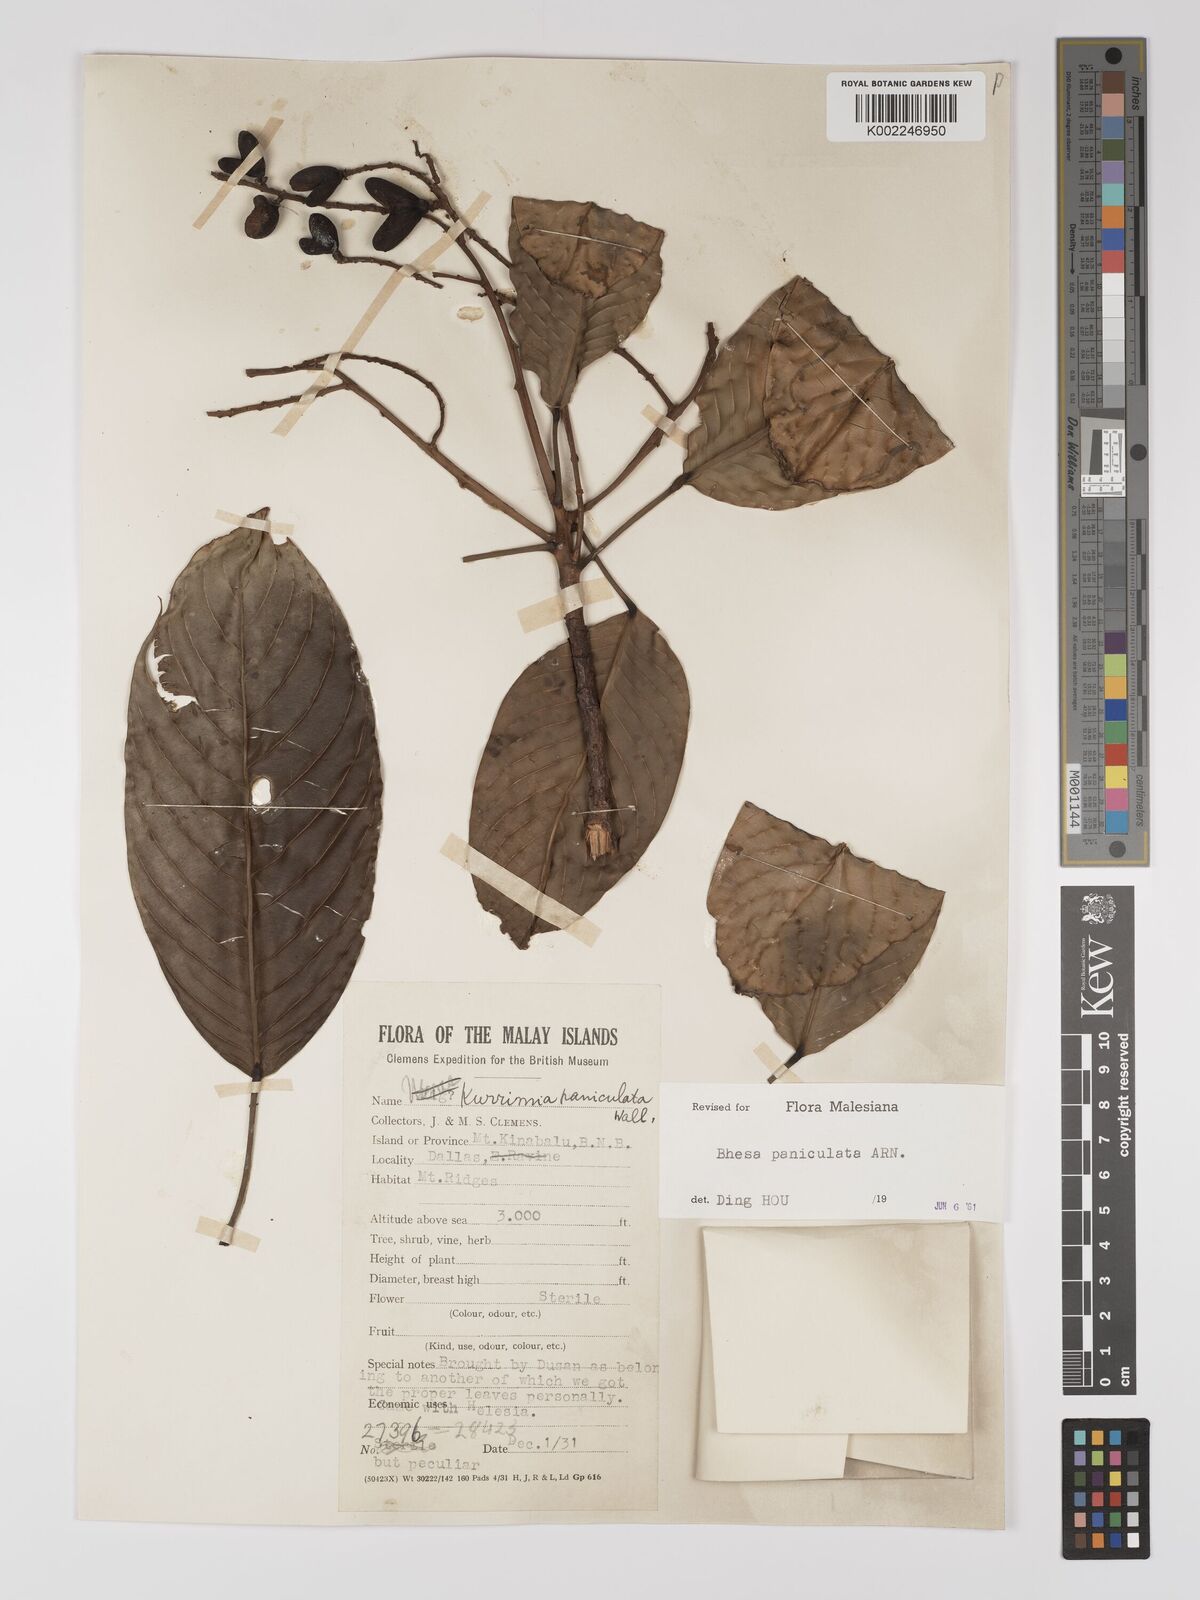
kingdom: Plantae
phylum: Tracheophyta
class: Magnoliopsida
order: Malpighiales
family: Centroplacaceae
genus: Bhesa
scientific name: Bhesa paniculata
